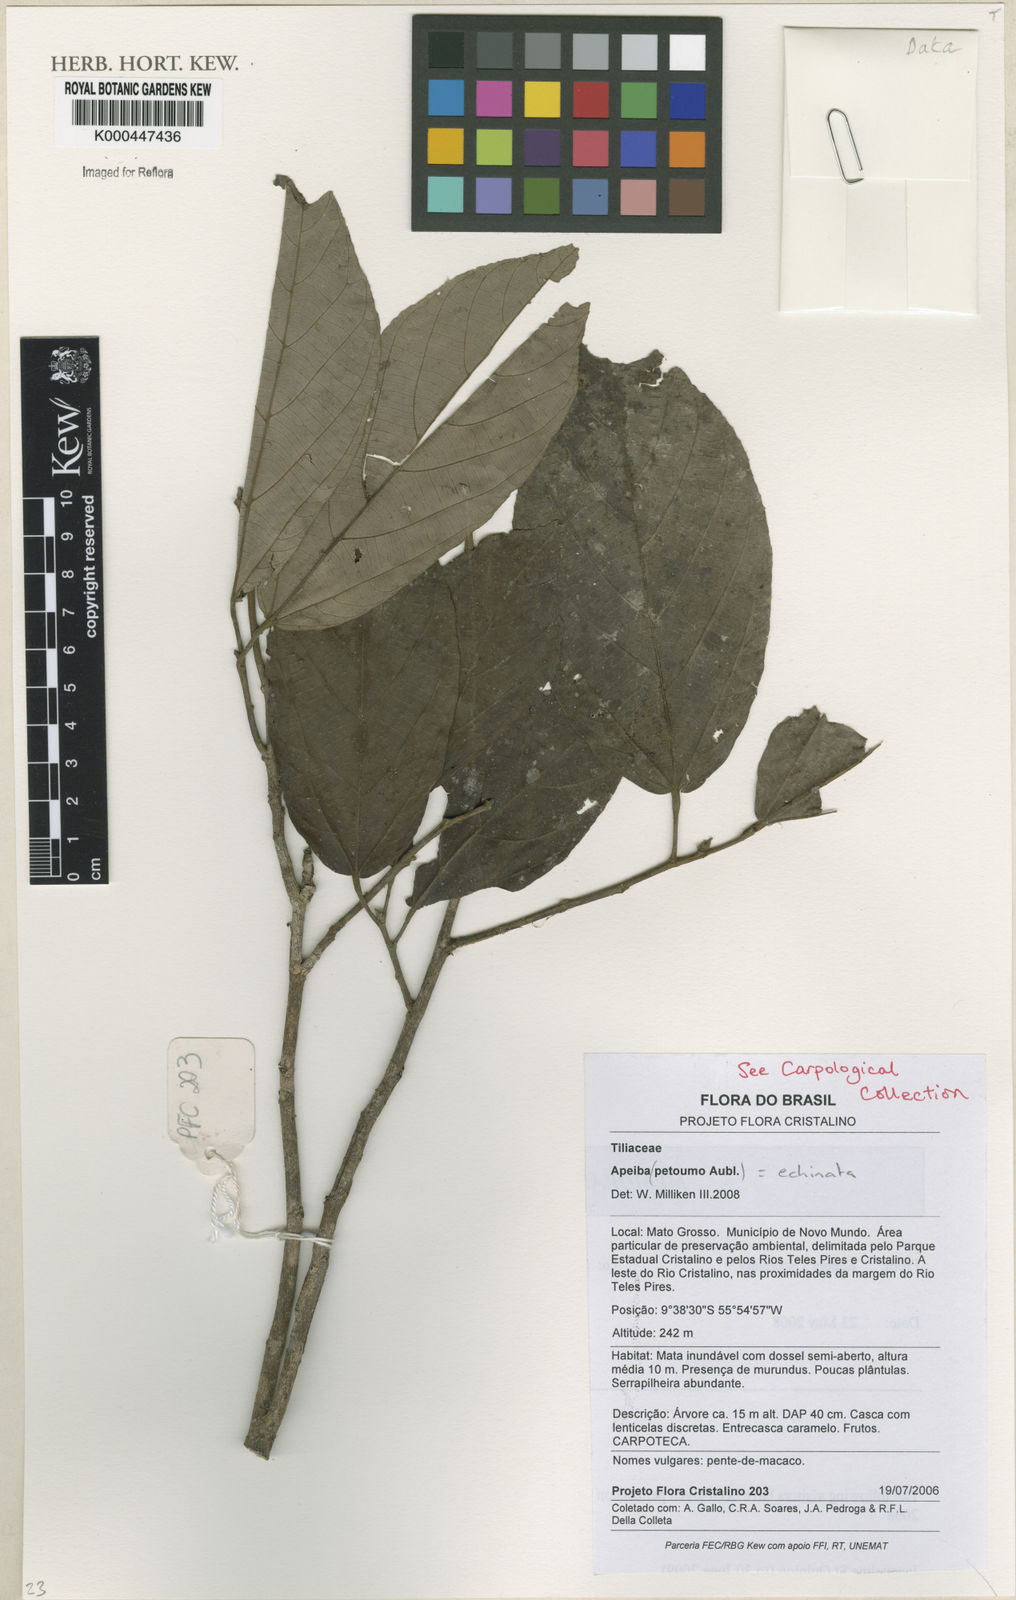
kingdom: Plantae
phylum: Tracheophyta
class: Magnoliopsida
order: Malvales
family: Malvaceae
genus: Apeiba
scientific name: Apeiba petoumo
